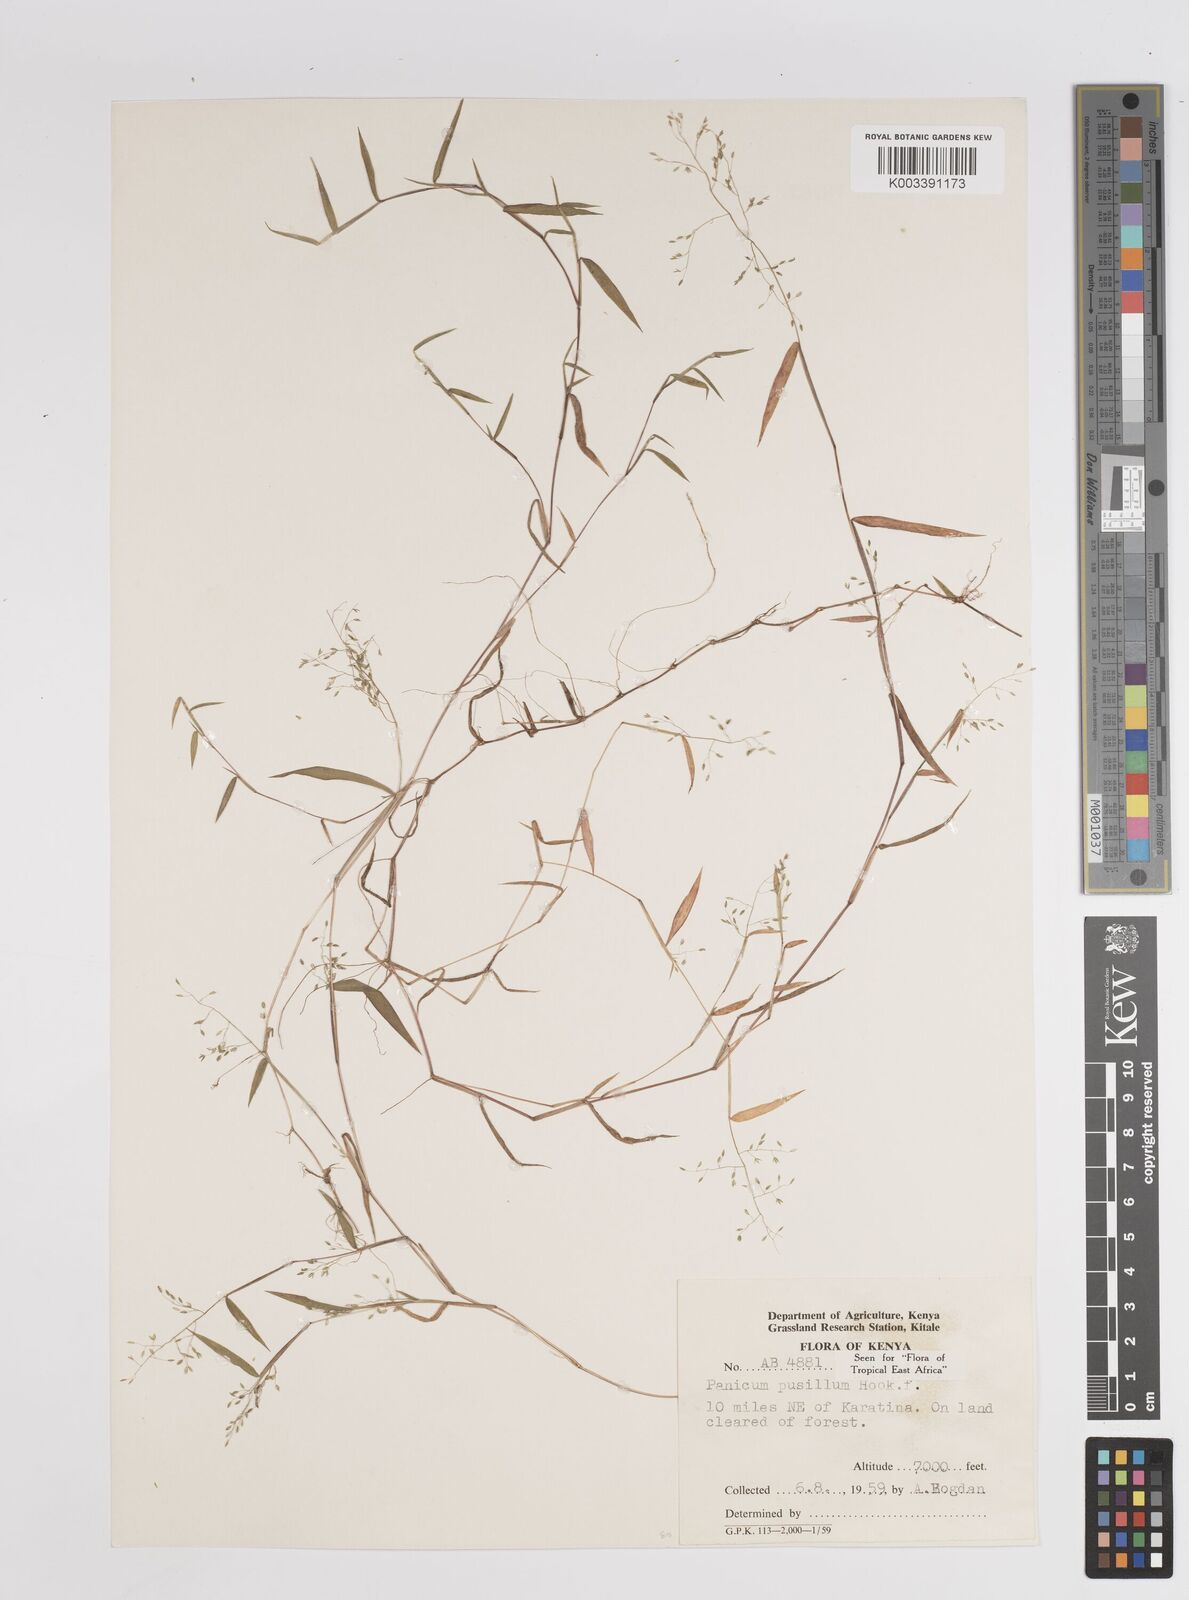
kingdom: Plantae
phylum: Tracheophyta
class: Liliopsida
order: Poales
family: Poaceae
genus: Panicum
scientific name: Panicum pusillum
